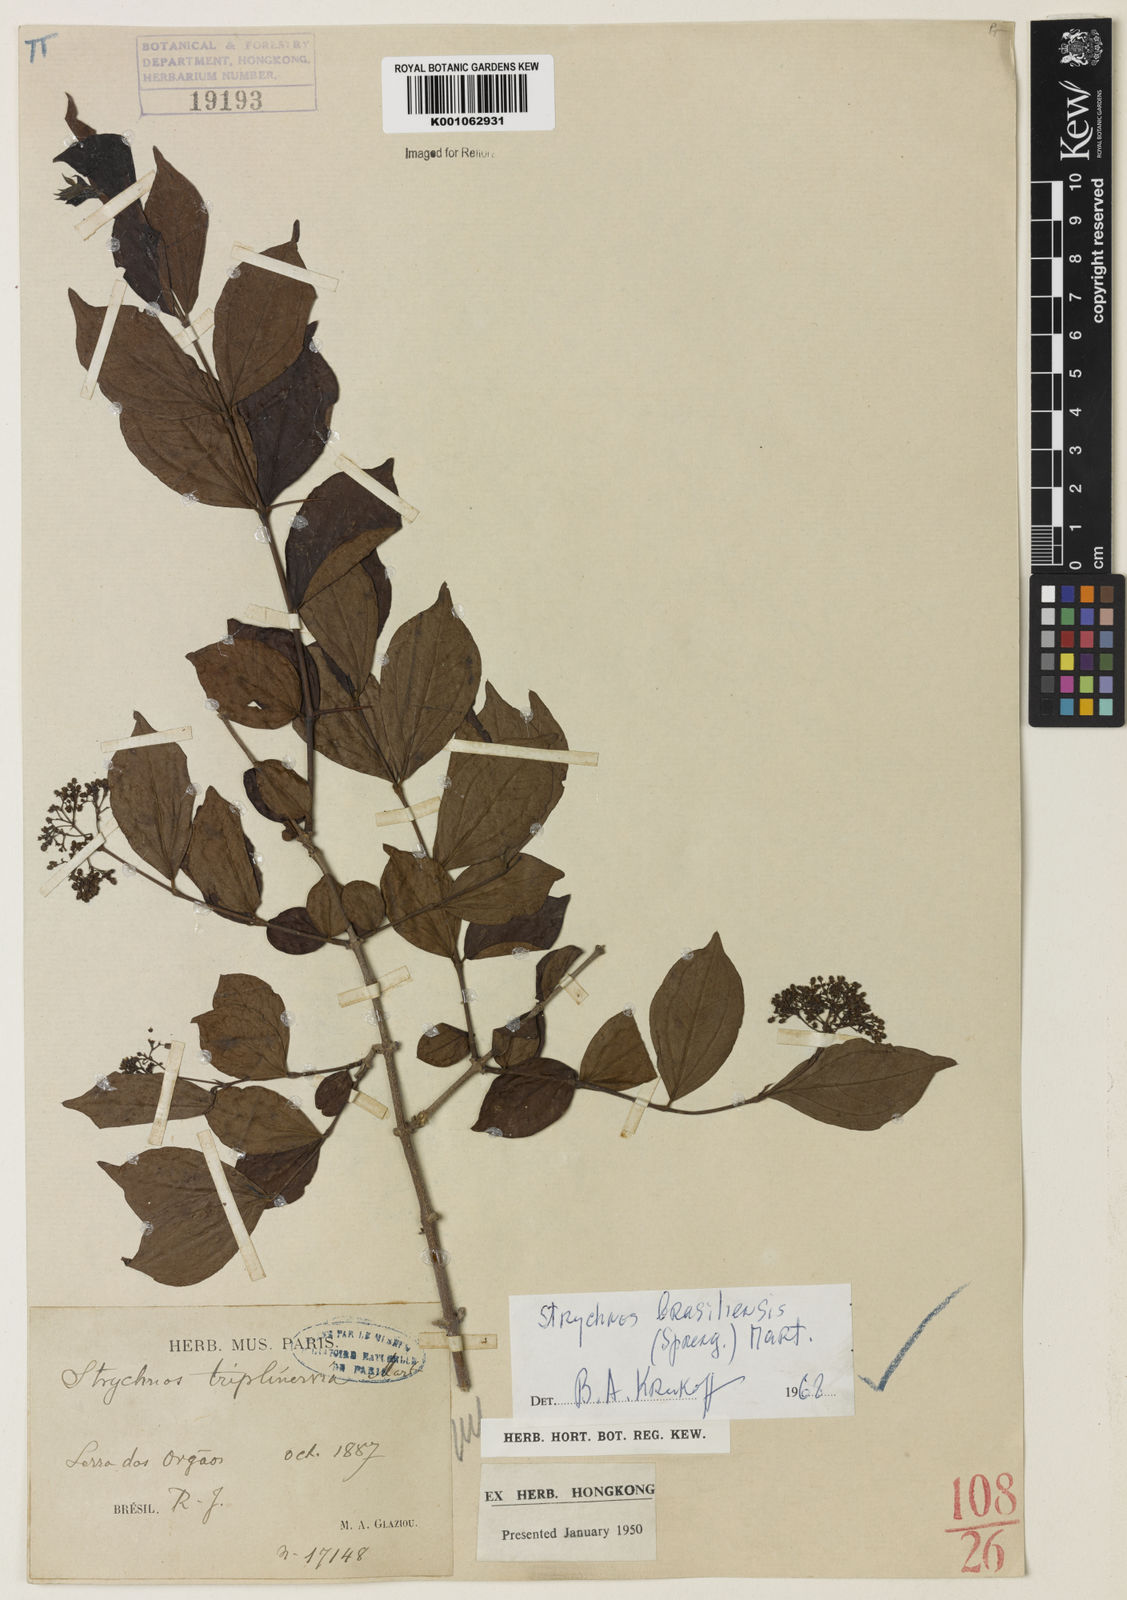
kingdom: Plantae
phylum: Tracheophyta
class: Magnoliopsida
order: Gentianales
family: Loganiaceae
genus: Strychnos
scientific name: Strychnos brasiliensis
